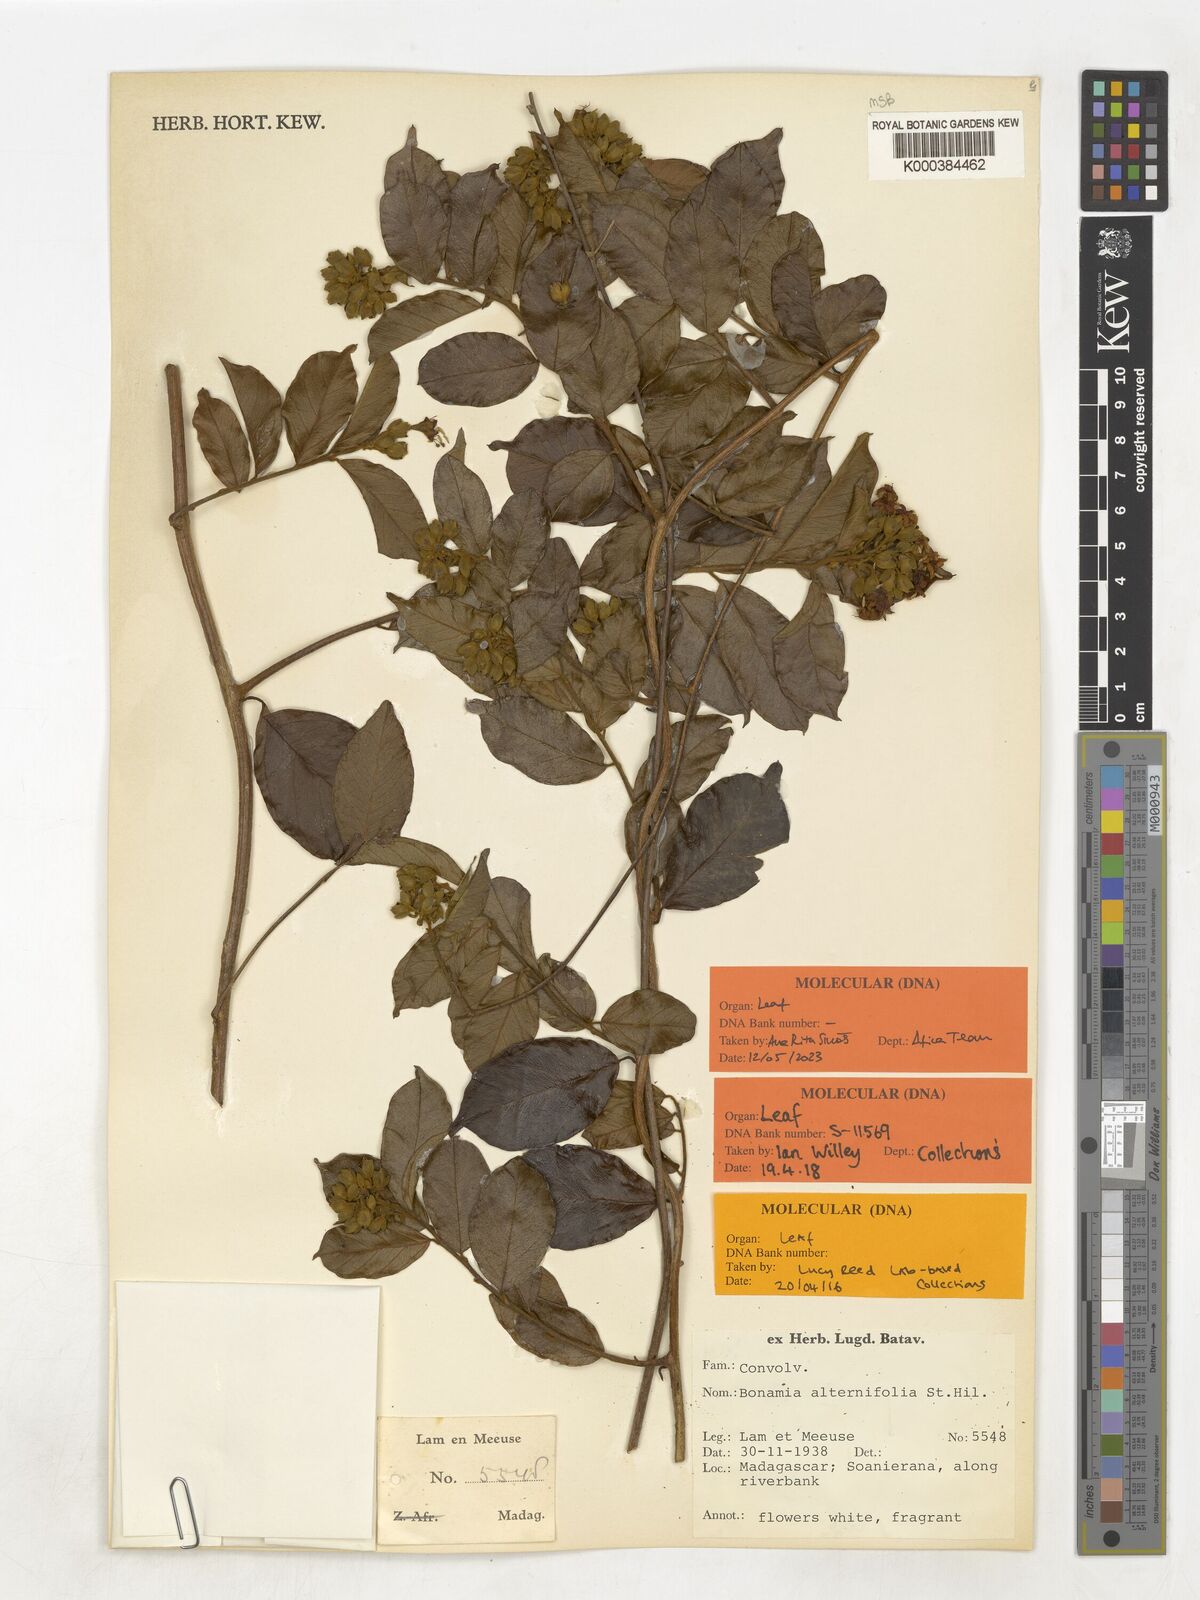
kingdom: Plantae
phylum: Tracheophyta
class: Magnoliopsida
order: Solanales
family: Convolvulaceae
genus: Bonamia
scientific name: Bonamia alternifolia
